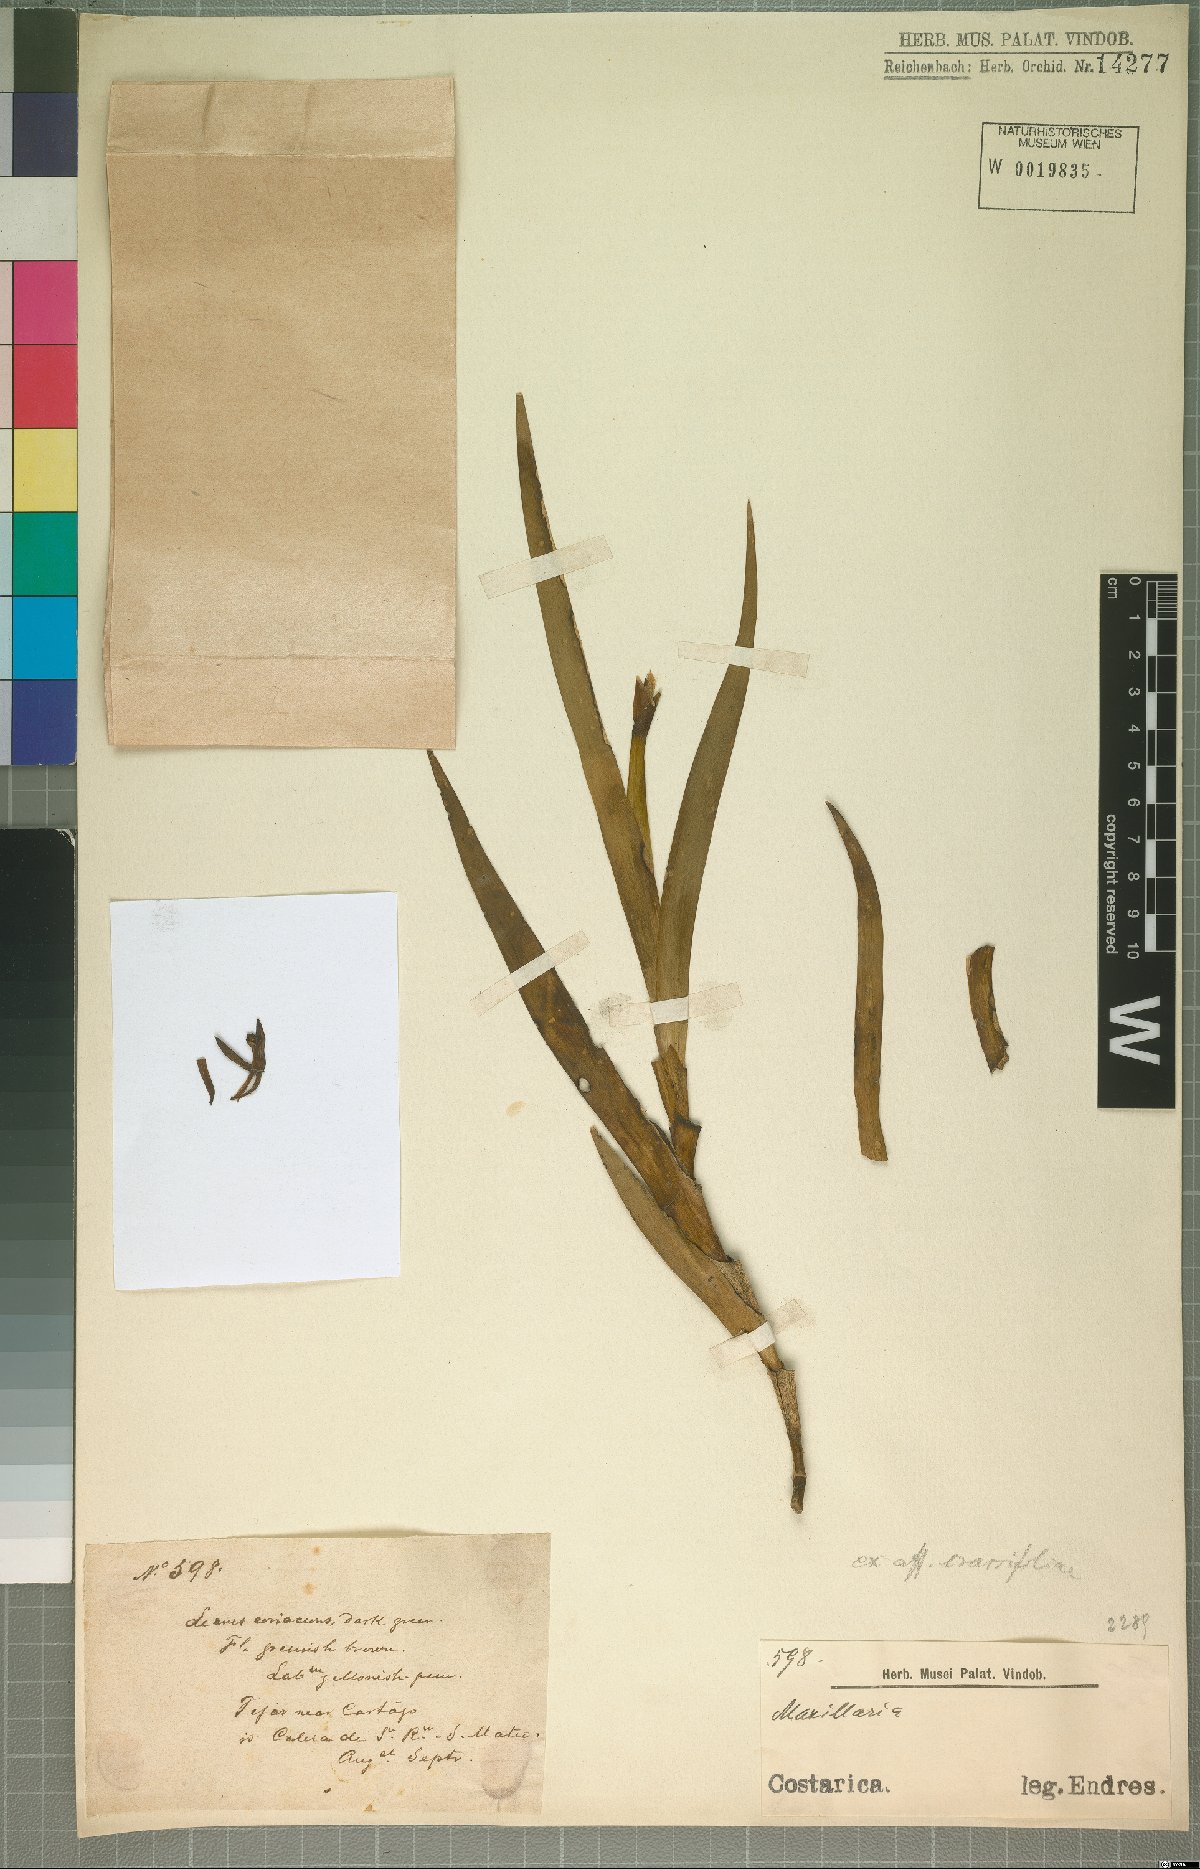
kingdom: Plantae
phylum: Tracheophyta
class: Liliopsida
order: Asparagales
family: Orchidaceae
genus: Jacquiniella
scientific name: Jacquiniella equitantifolia
